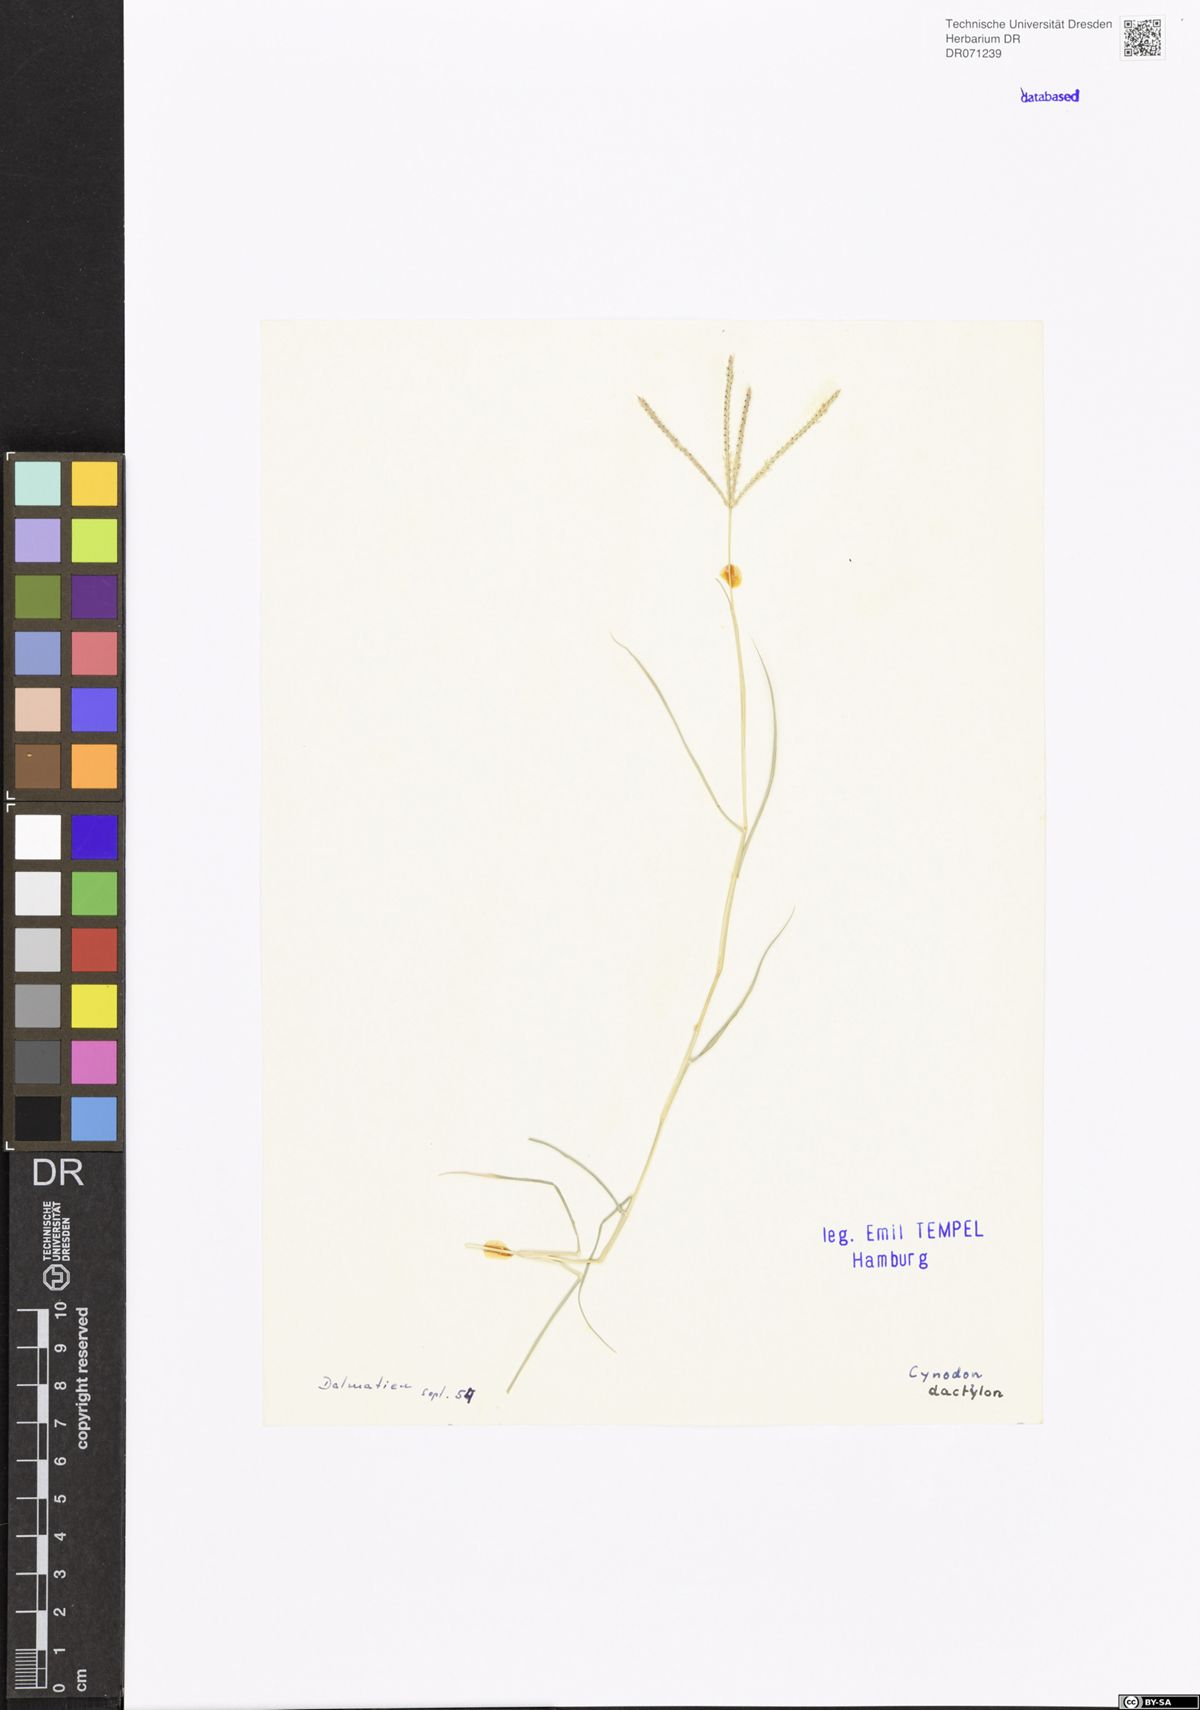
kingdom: Plantae
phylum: Tracheophyta
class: Liliopsida
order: Poales
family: Poaceae
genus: Cynodon
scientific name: Cynodon dactylon
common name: Bermuda grass
